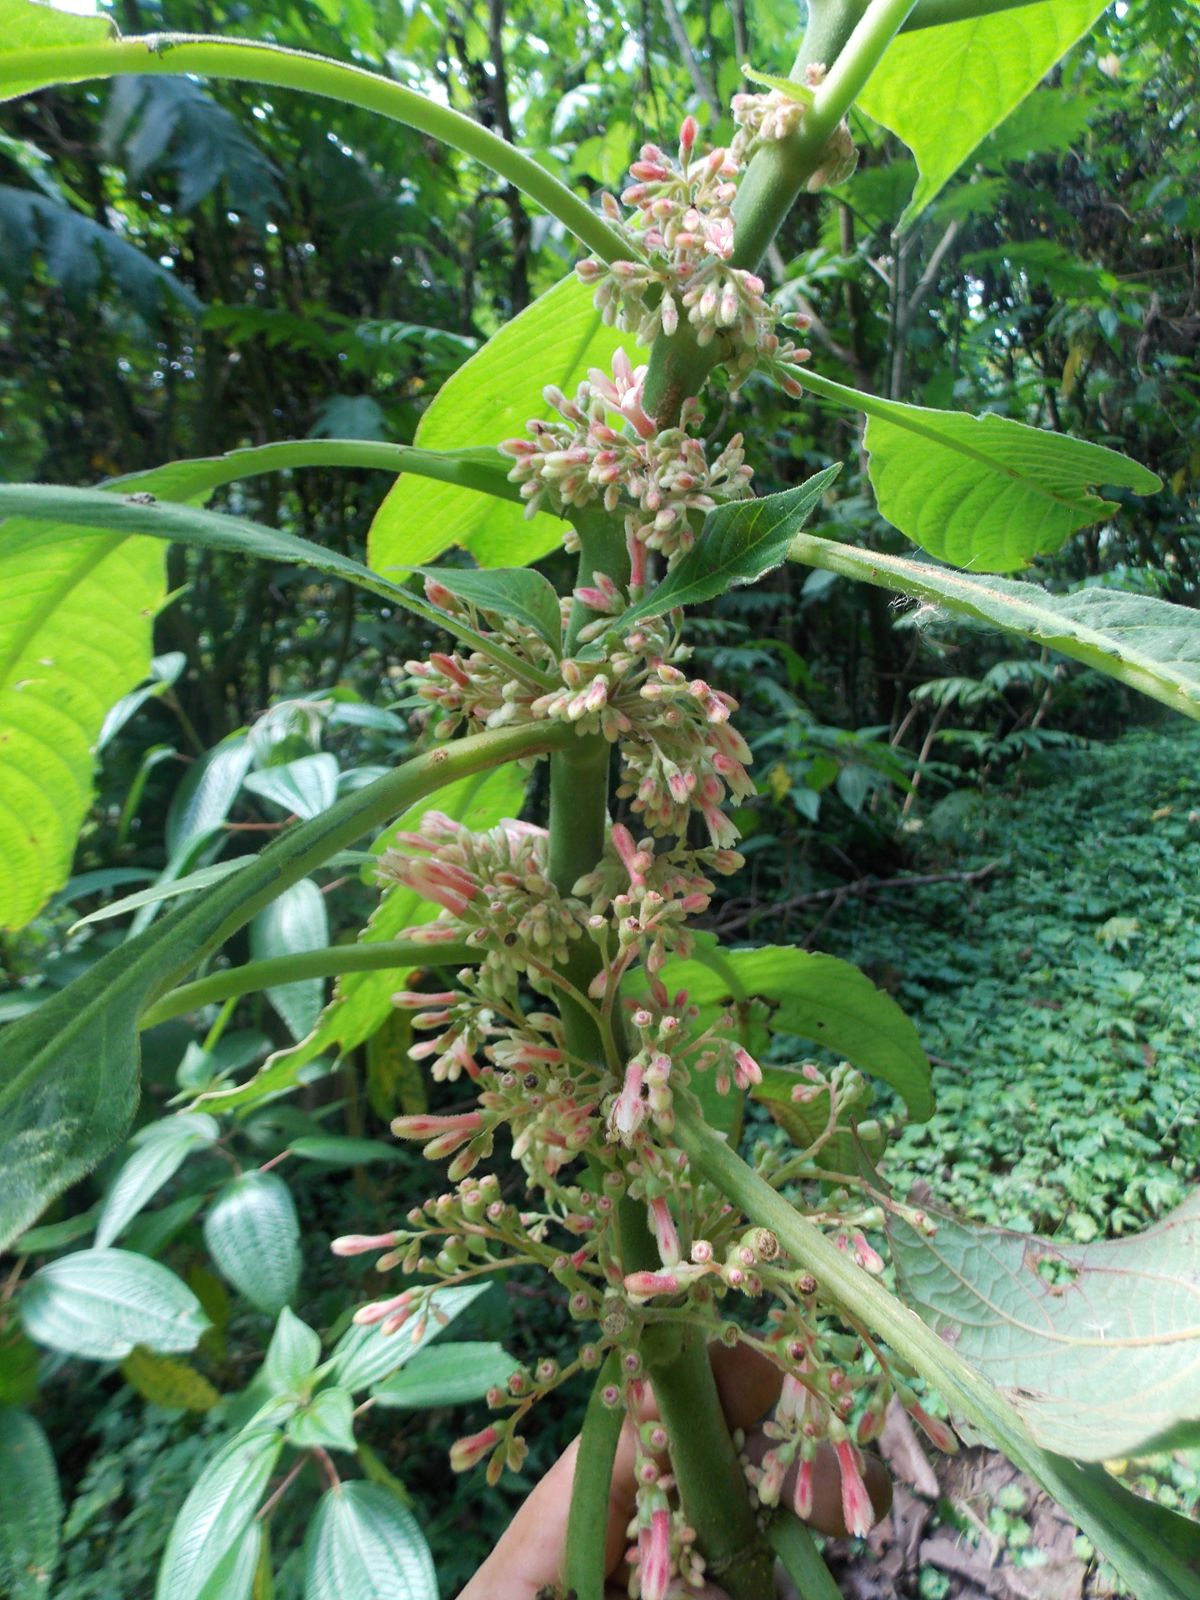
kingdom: Plantae
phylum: Tracheophyta
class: Magnoliopsida
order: Gentianales
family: Rubiaceae
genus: Hoffmannia
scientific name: Hoffmannia regalis
